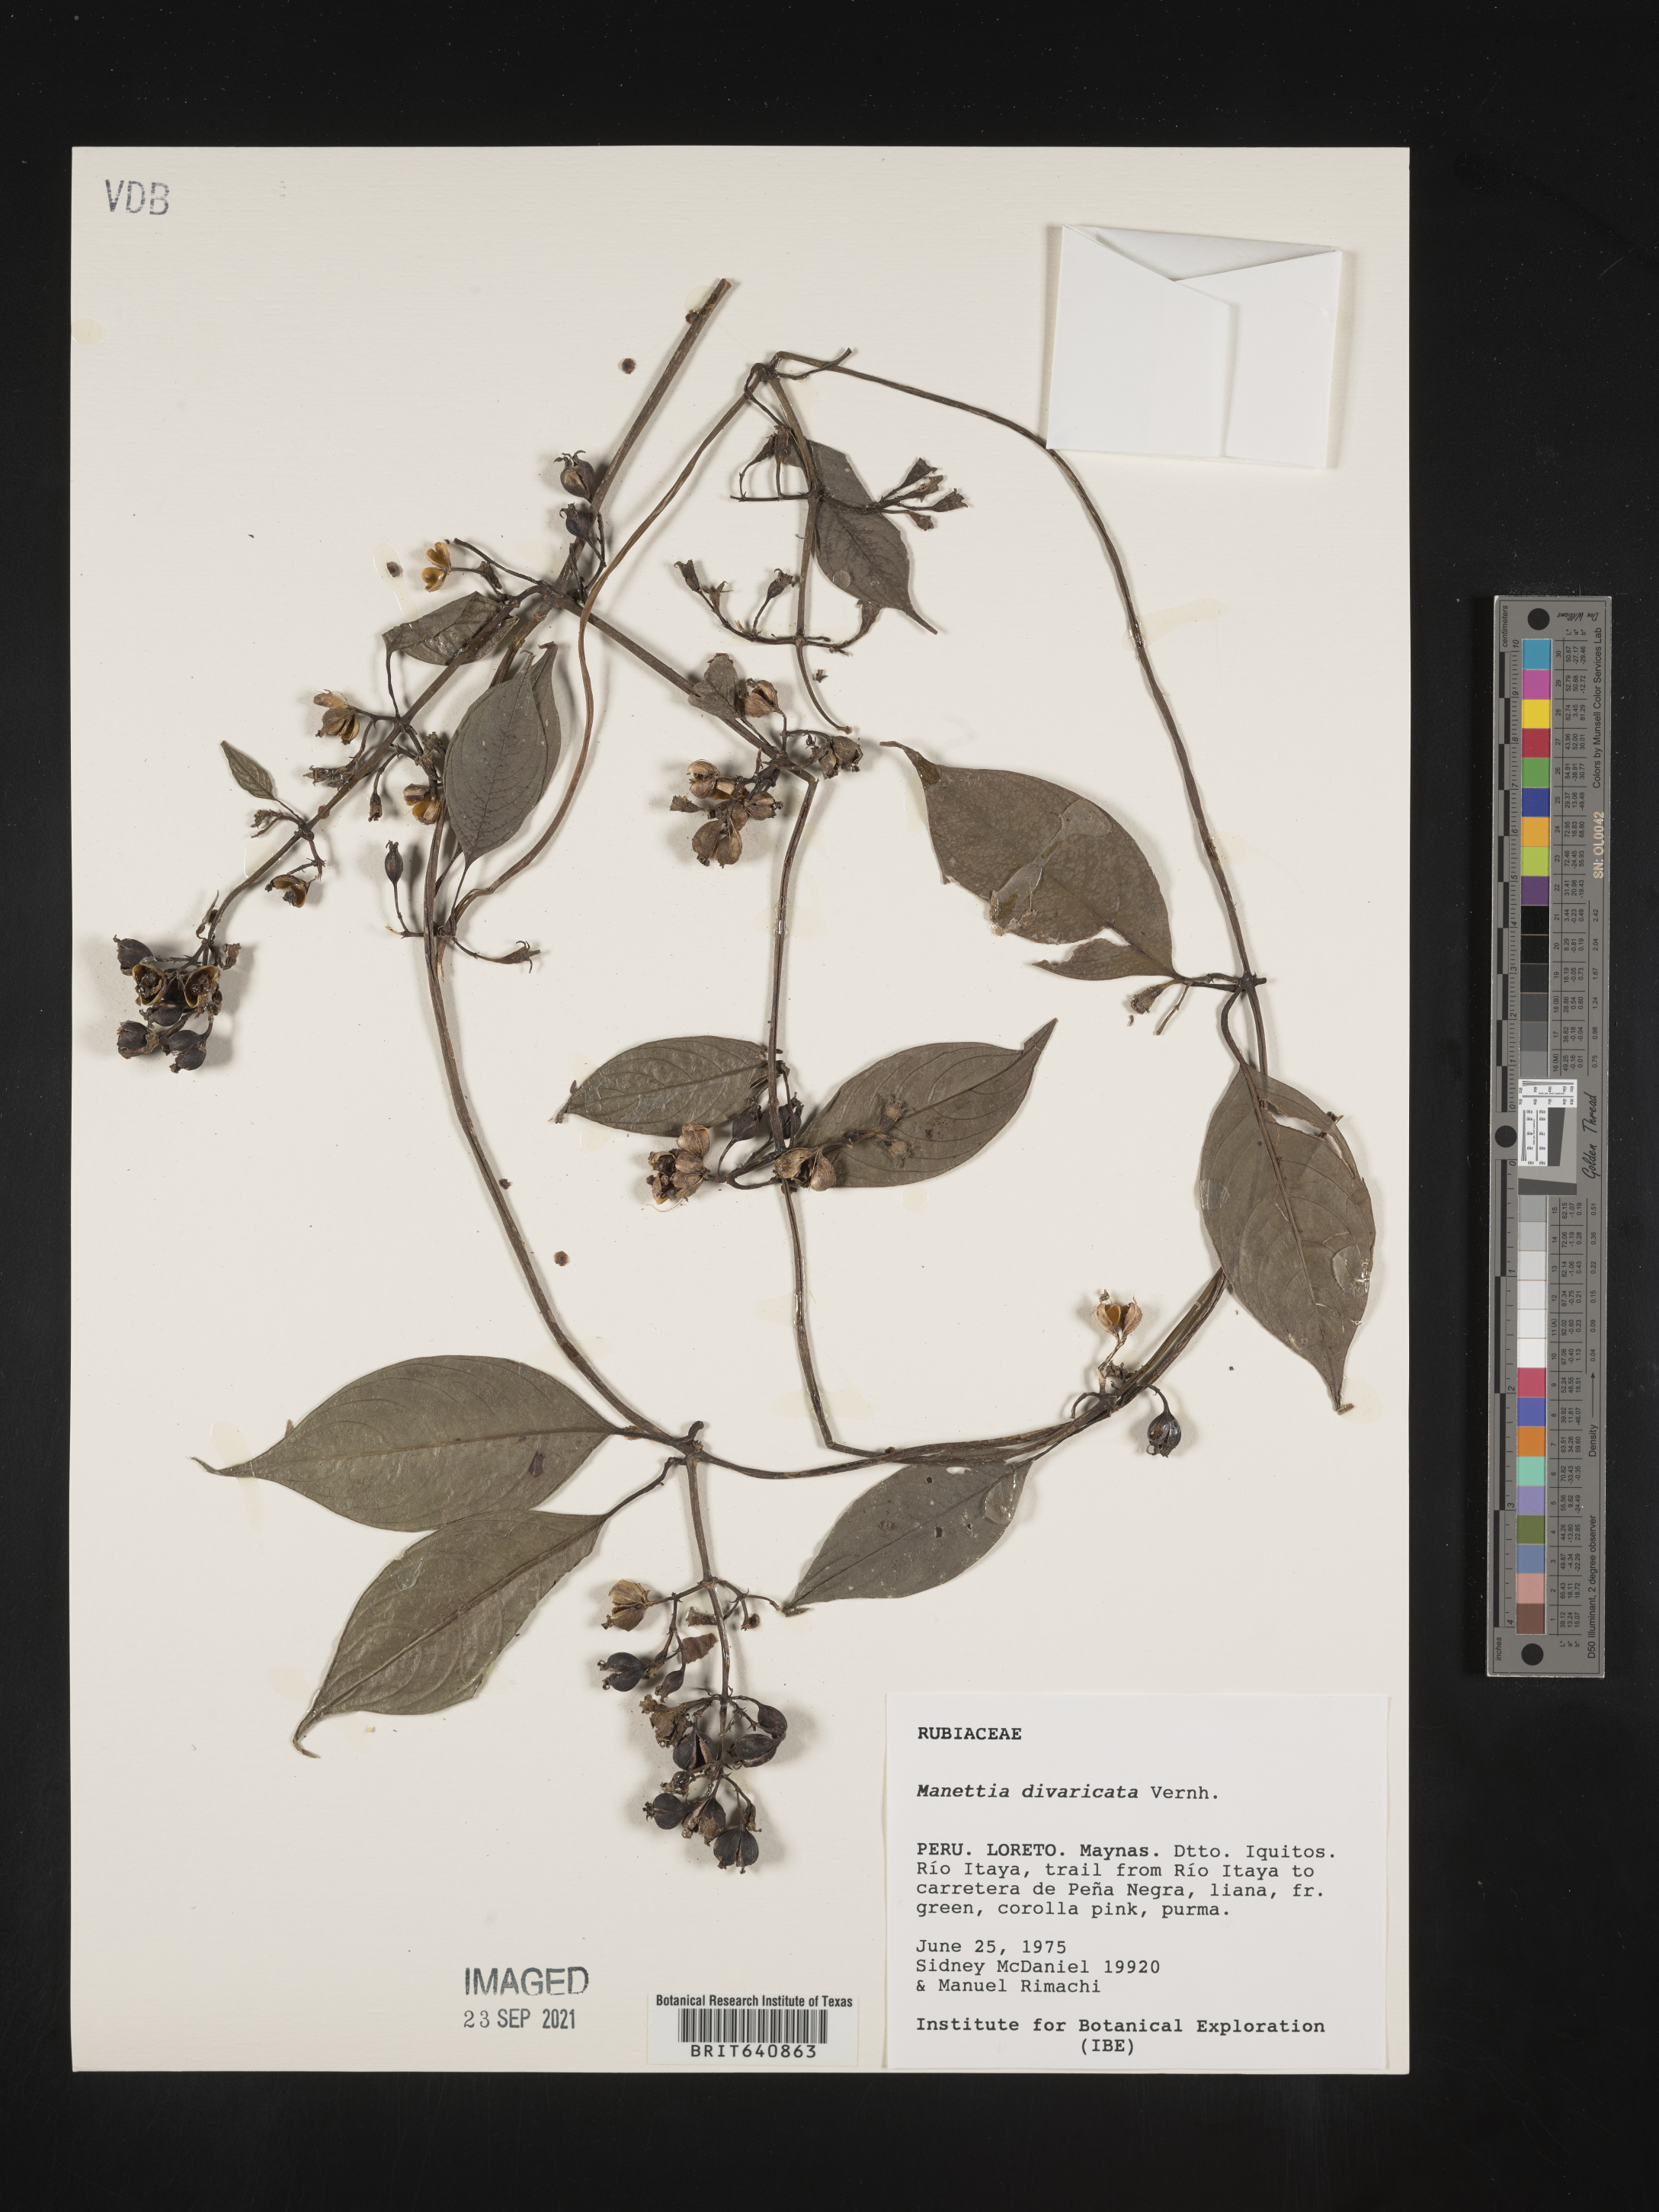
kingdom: Plantae
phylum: Tracheophyta
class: Magnoliopsida
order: Gentianales
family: Rubiaceae
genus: Manettia
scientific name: Manettia
